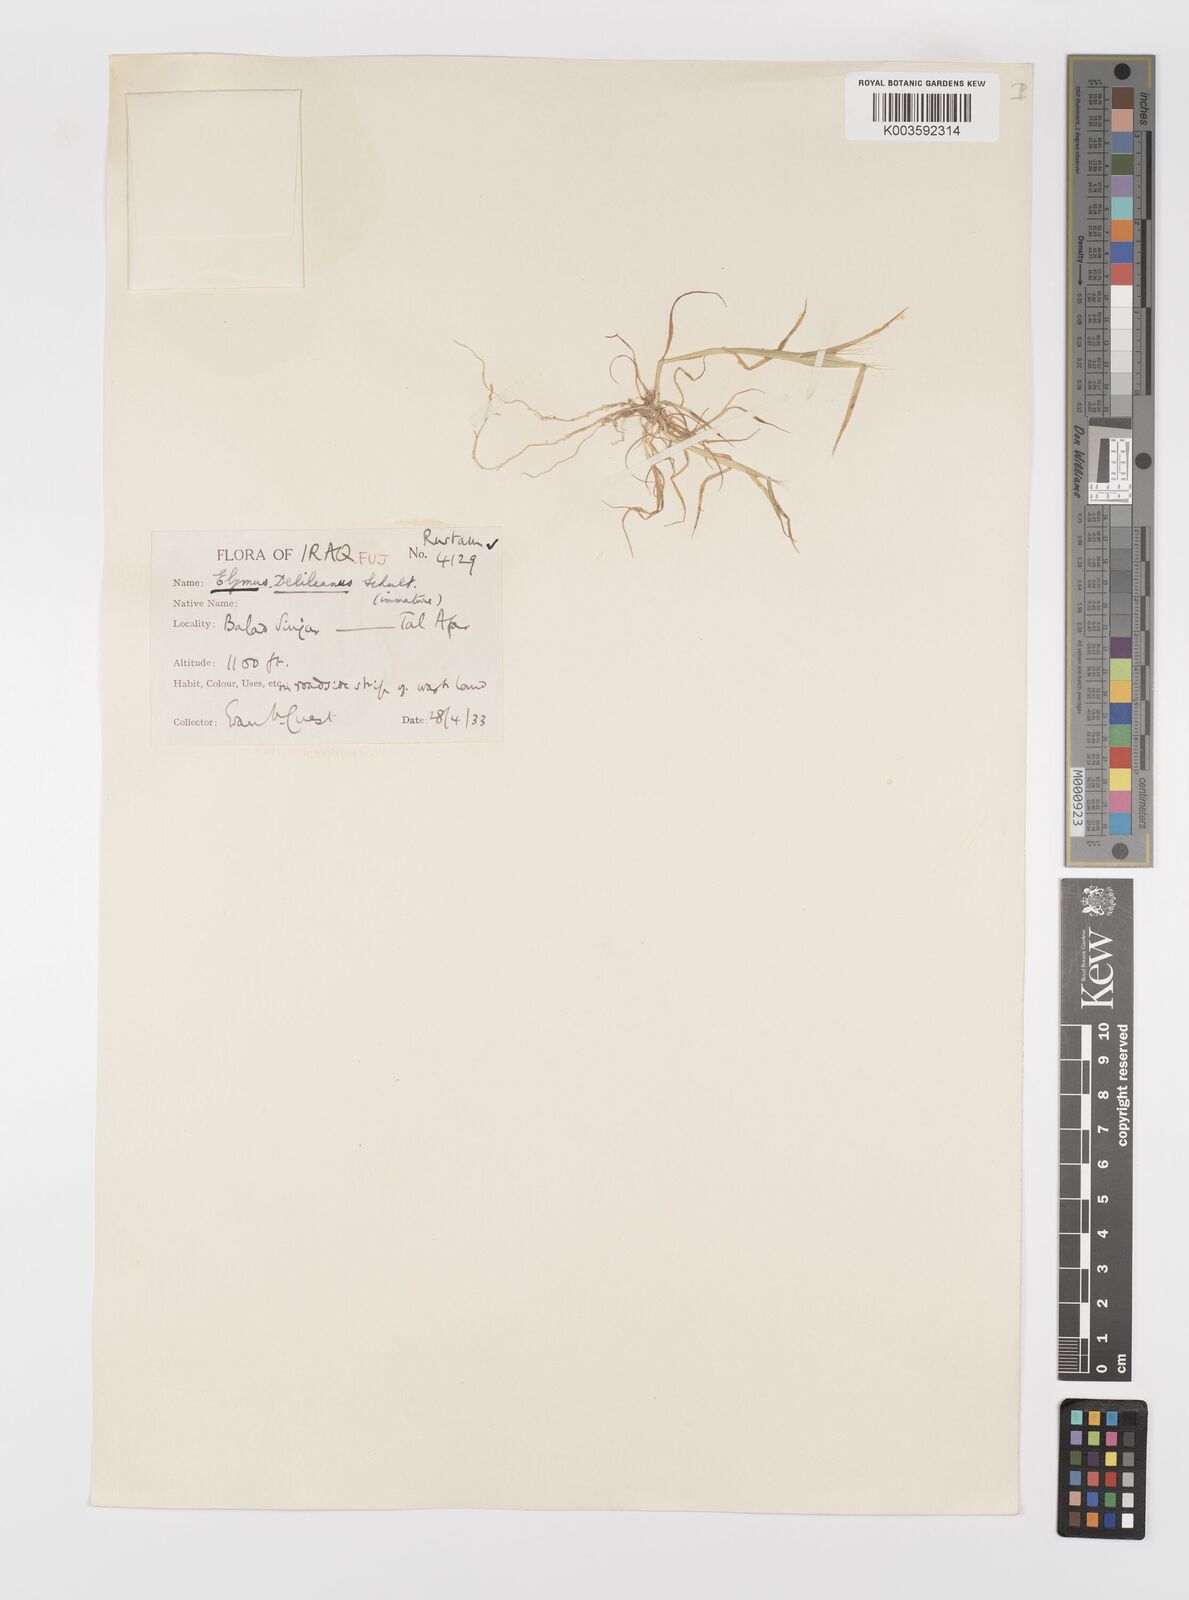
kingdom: Plantae
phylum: Tracheophyta
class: Liliopsida
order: Poales
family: Poaceae
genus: Crithopsis
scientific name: Crithopsis delileana
